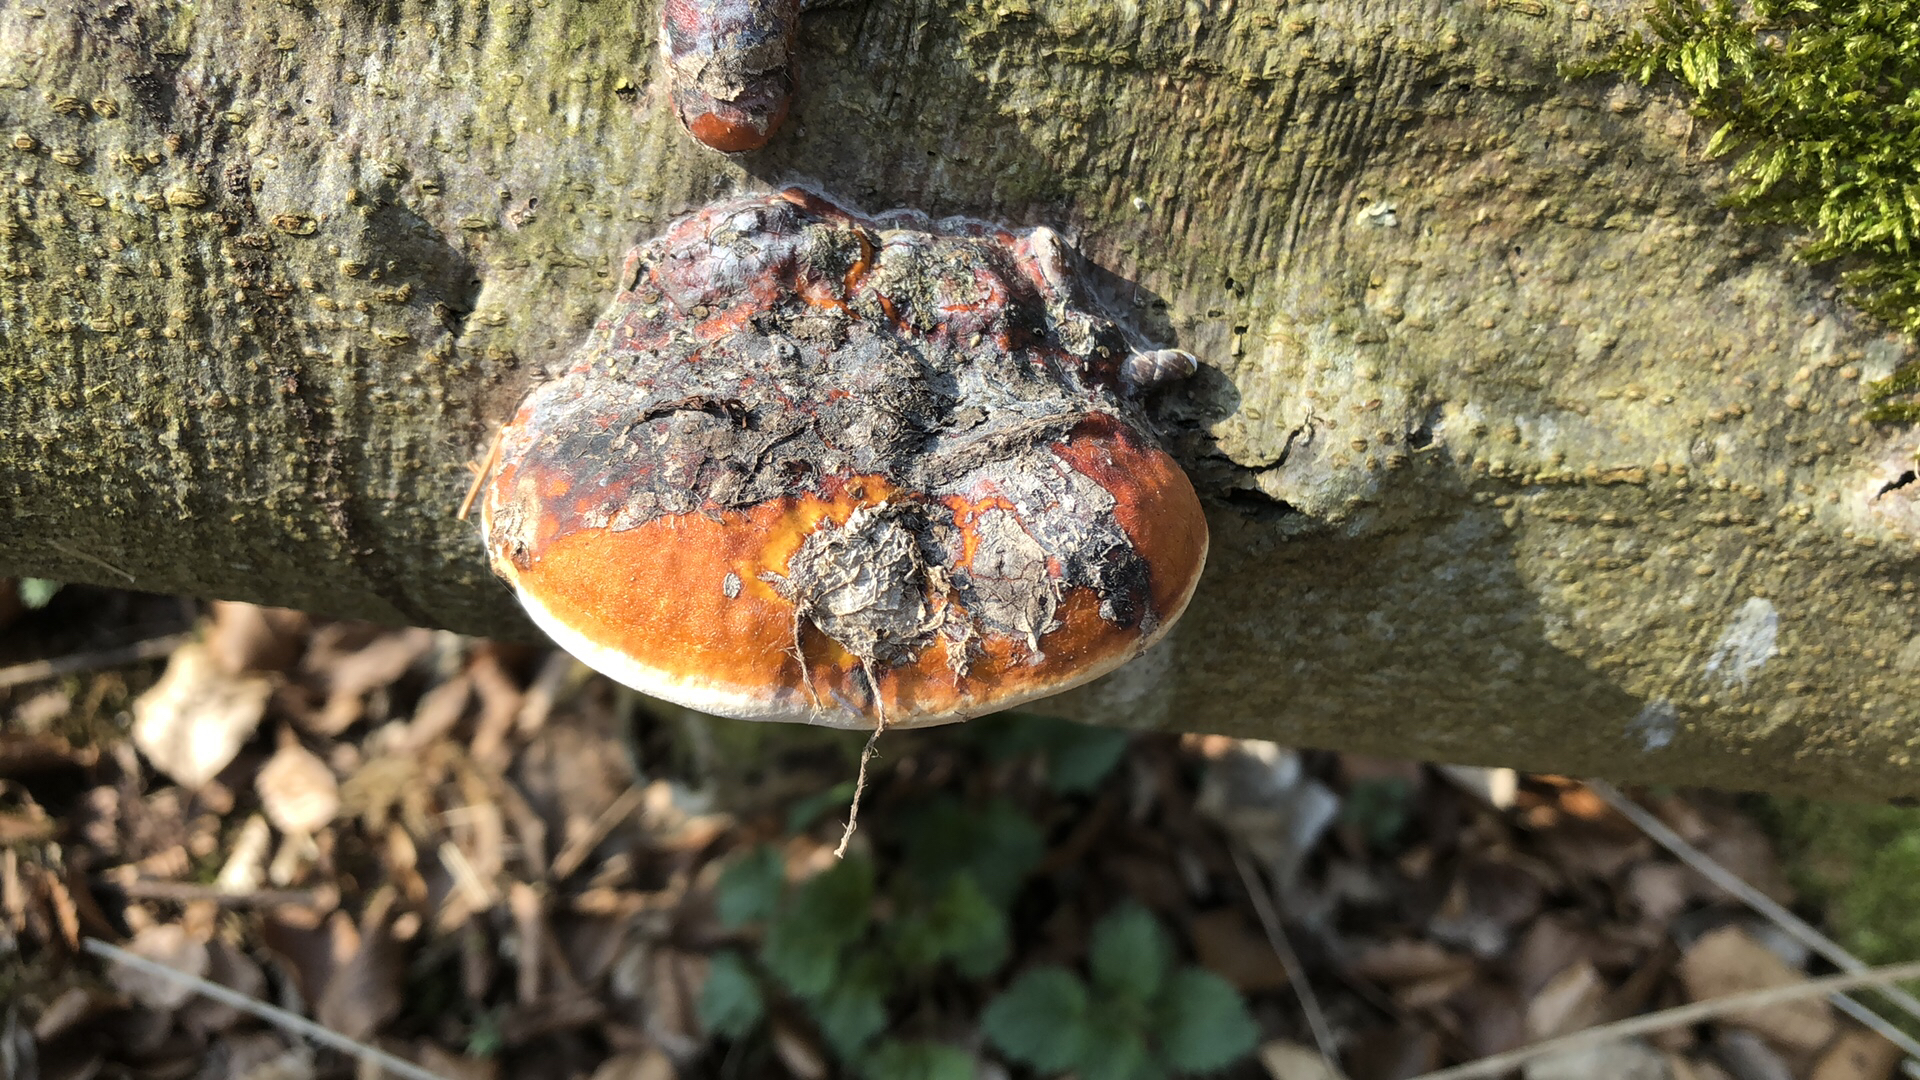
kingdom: Fungi
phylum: Basidiomycota
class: Agaricomycetes
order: Polyporales
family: Fomitopsidaceae
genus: Fomitopsis
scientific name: Fomitopsis pinicola
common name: randbæltet hovporesvamp
